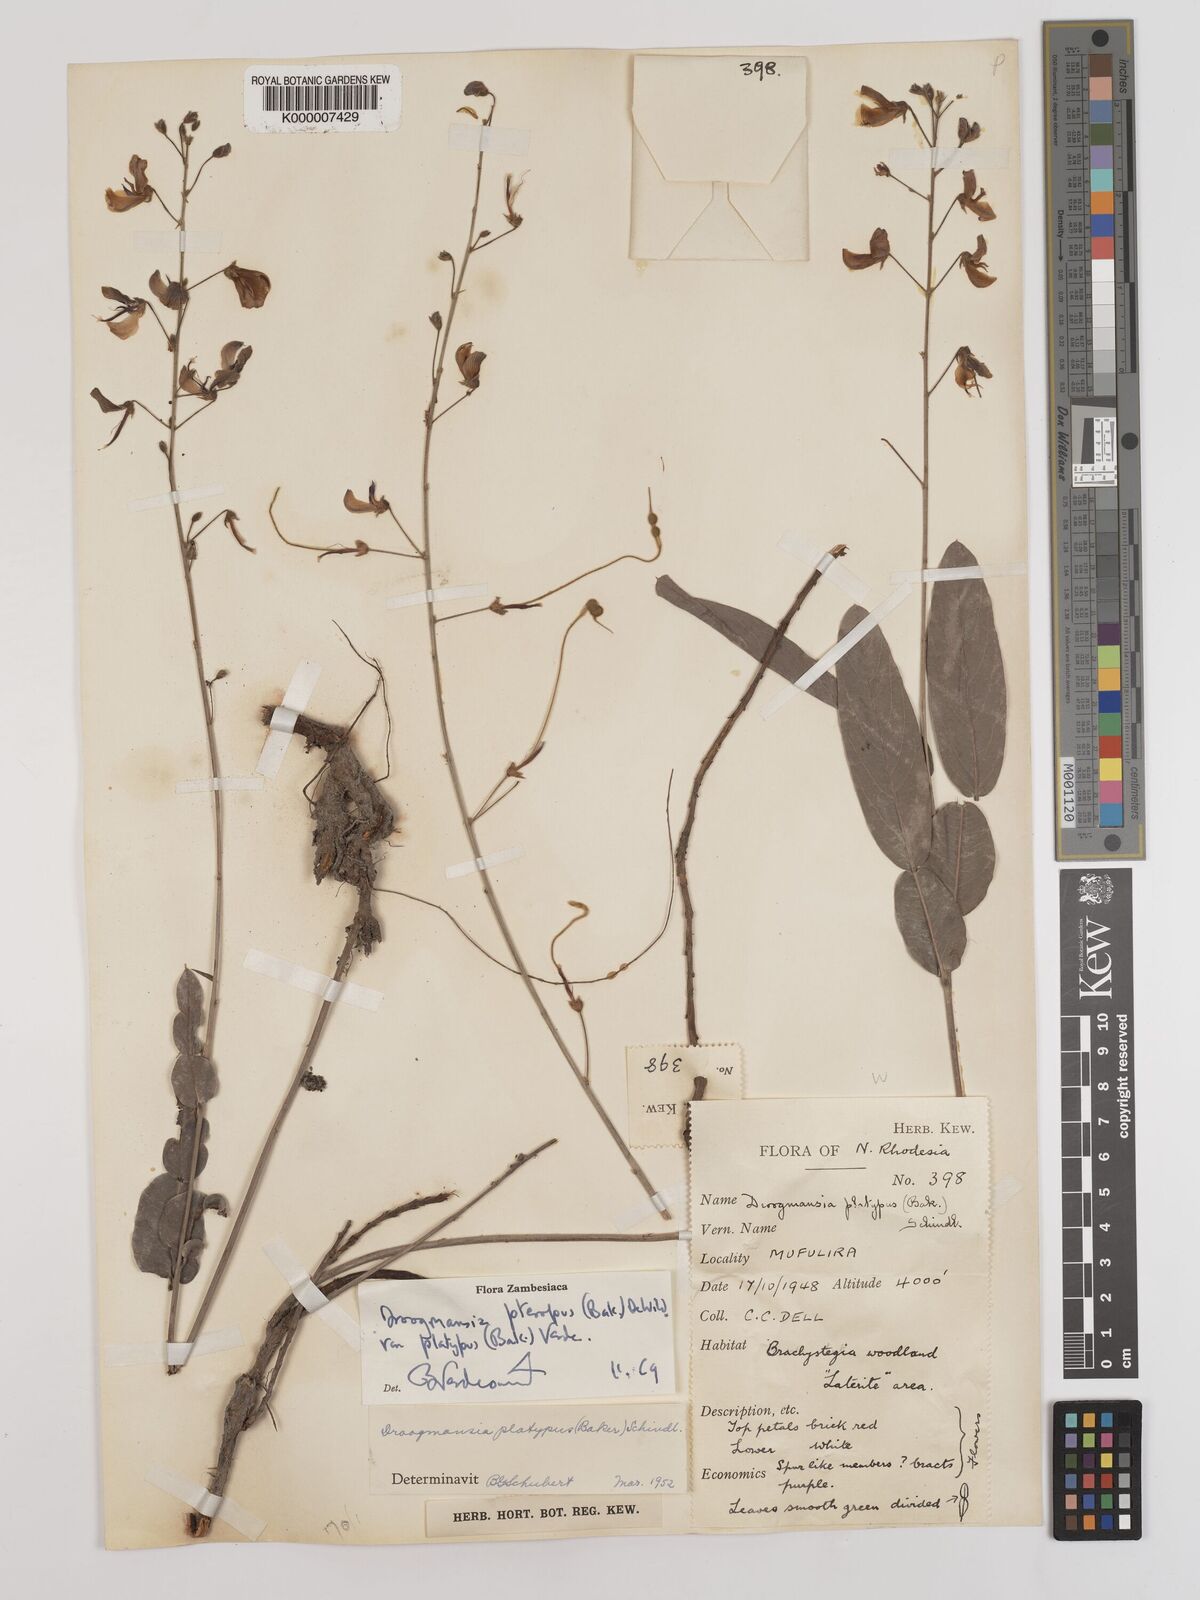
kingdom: Plantae
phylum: Tracheophyta
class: Magnoliopsida
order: Fabales
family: Fabaceae
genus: Droogmansia
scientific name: Droogmansia pteropus
